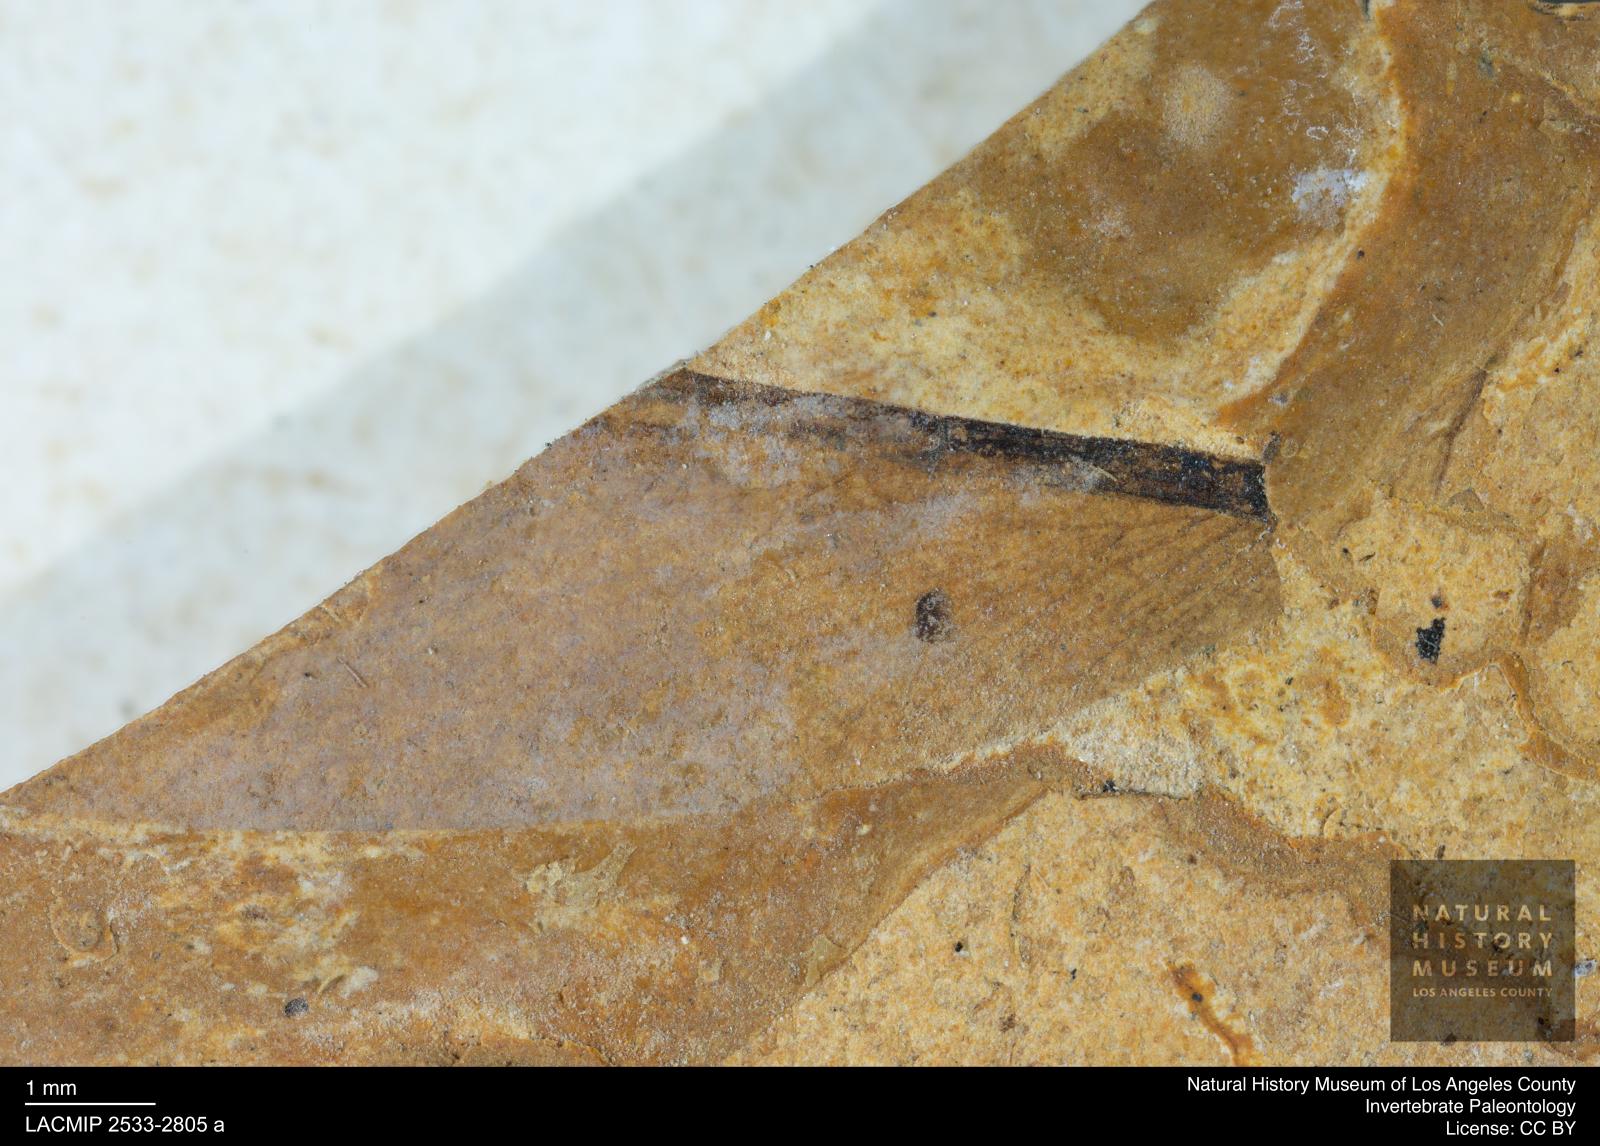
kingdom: Animalia
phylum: Arthropoda
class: Insecta
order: Blattodea
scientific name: Blattodea
